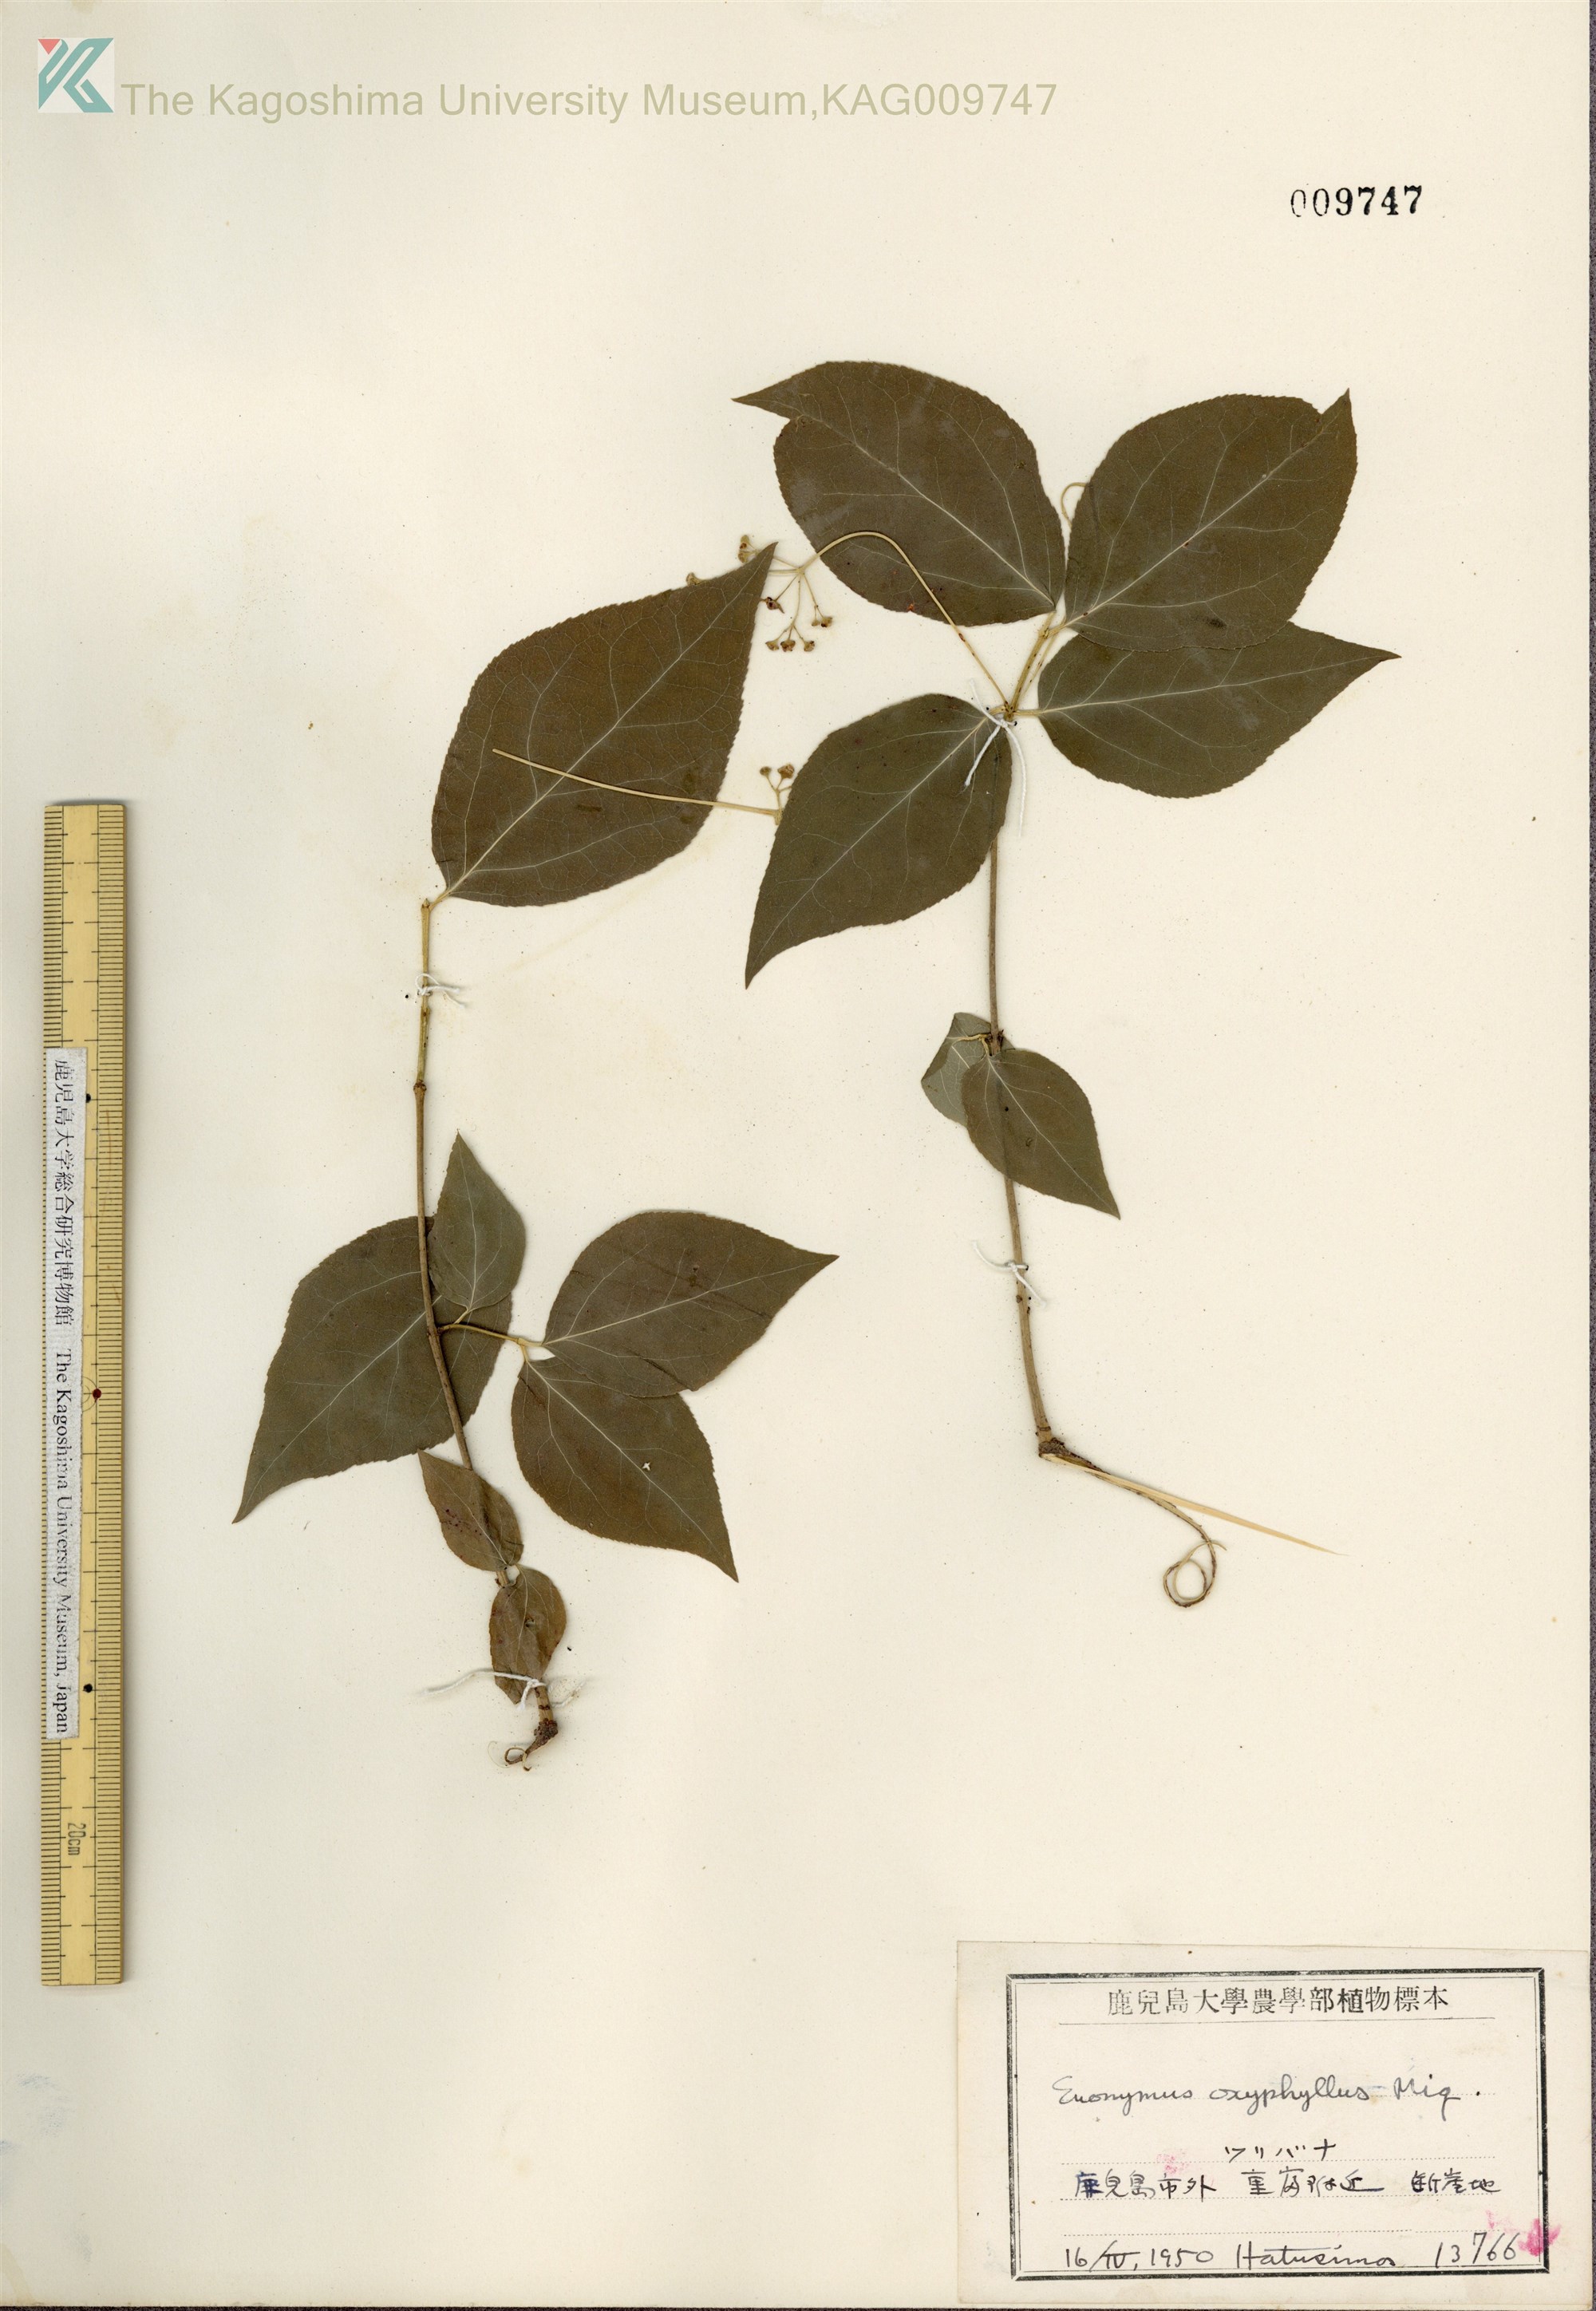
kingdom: Plantae
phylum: Tracheophyta
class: Magnoliopsida
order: Celastrales
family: Celastraceae
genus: Euonymus
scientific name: Euonymus oxyphyllus
